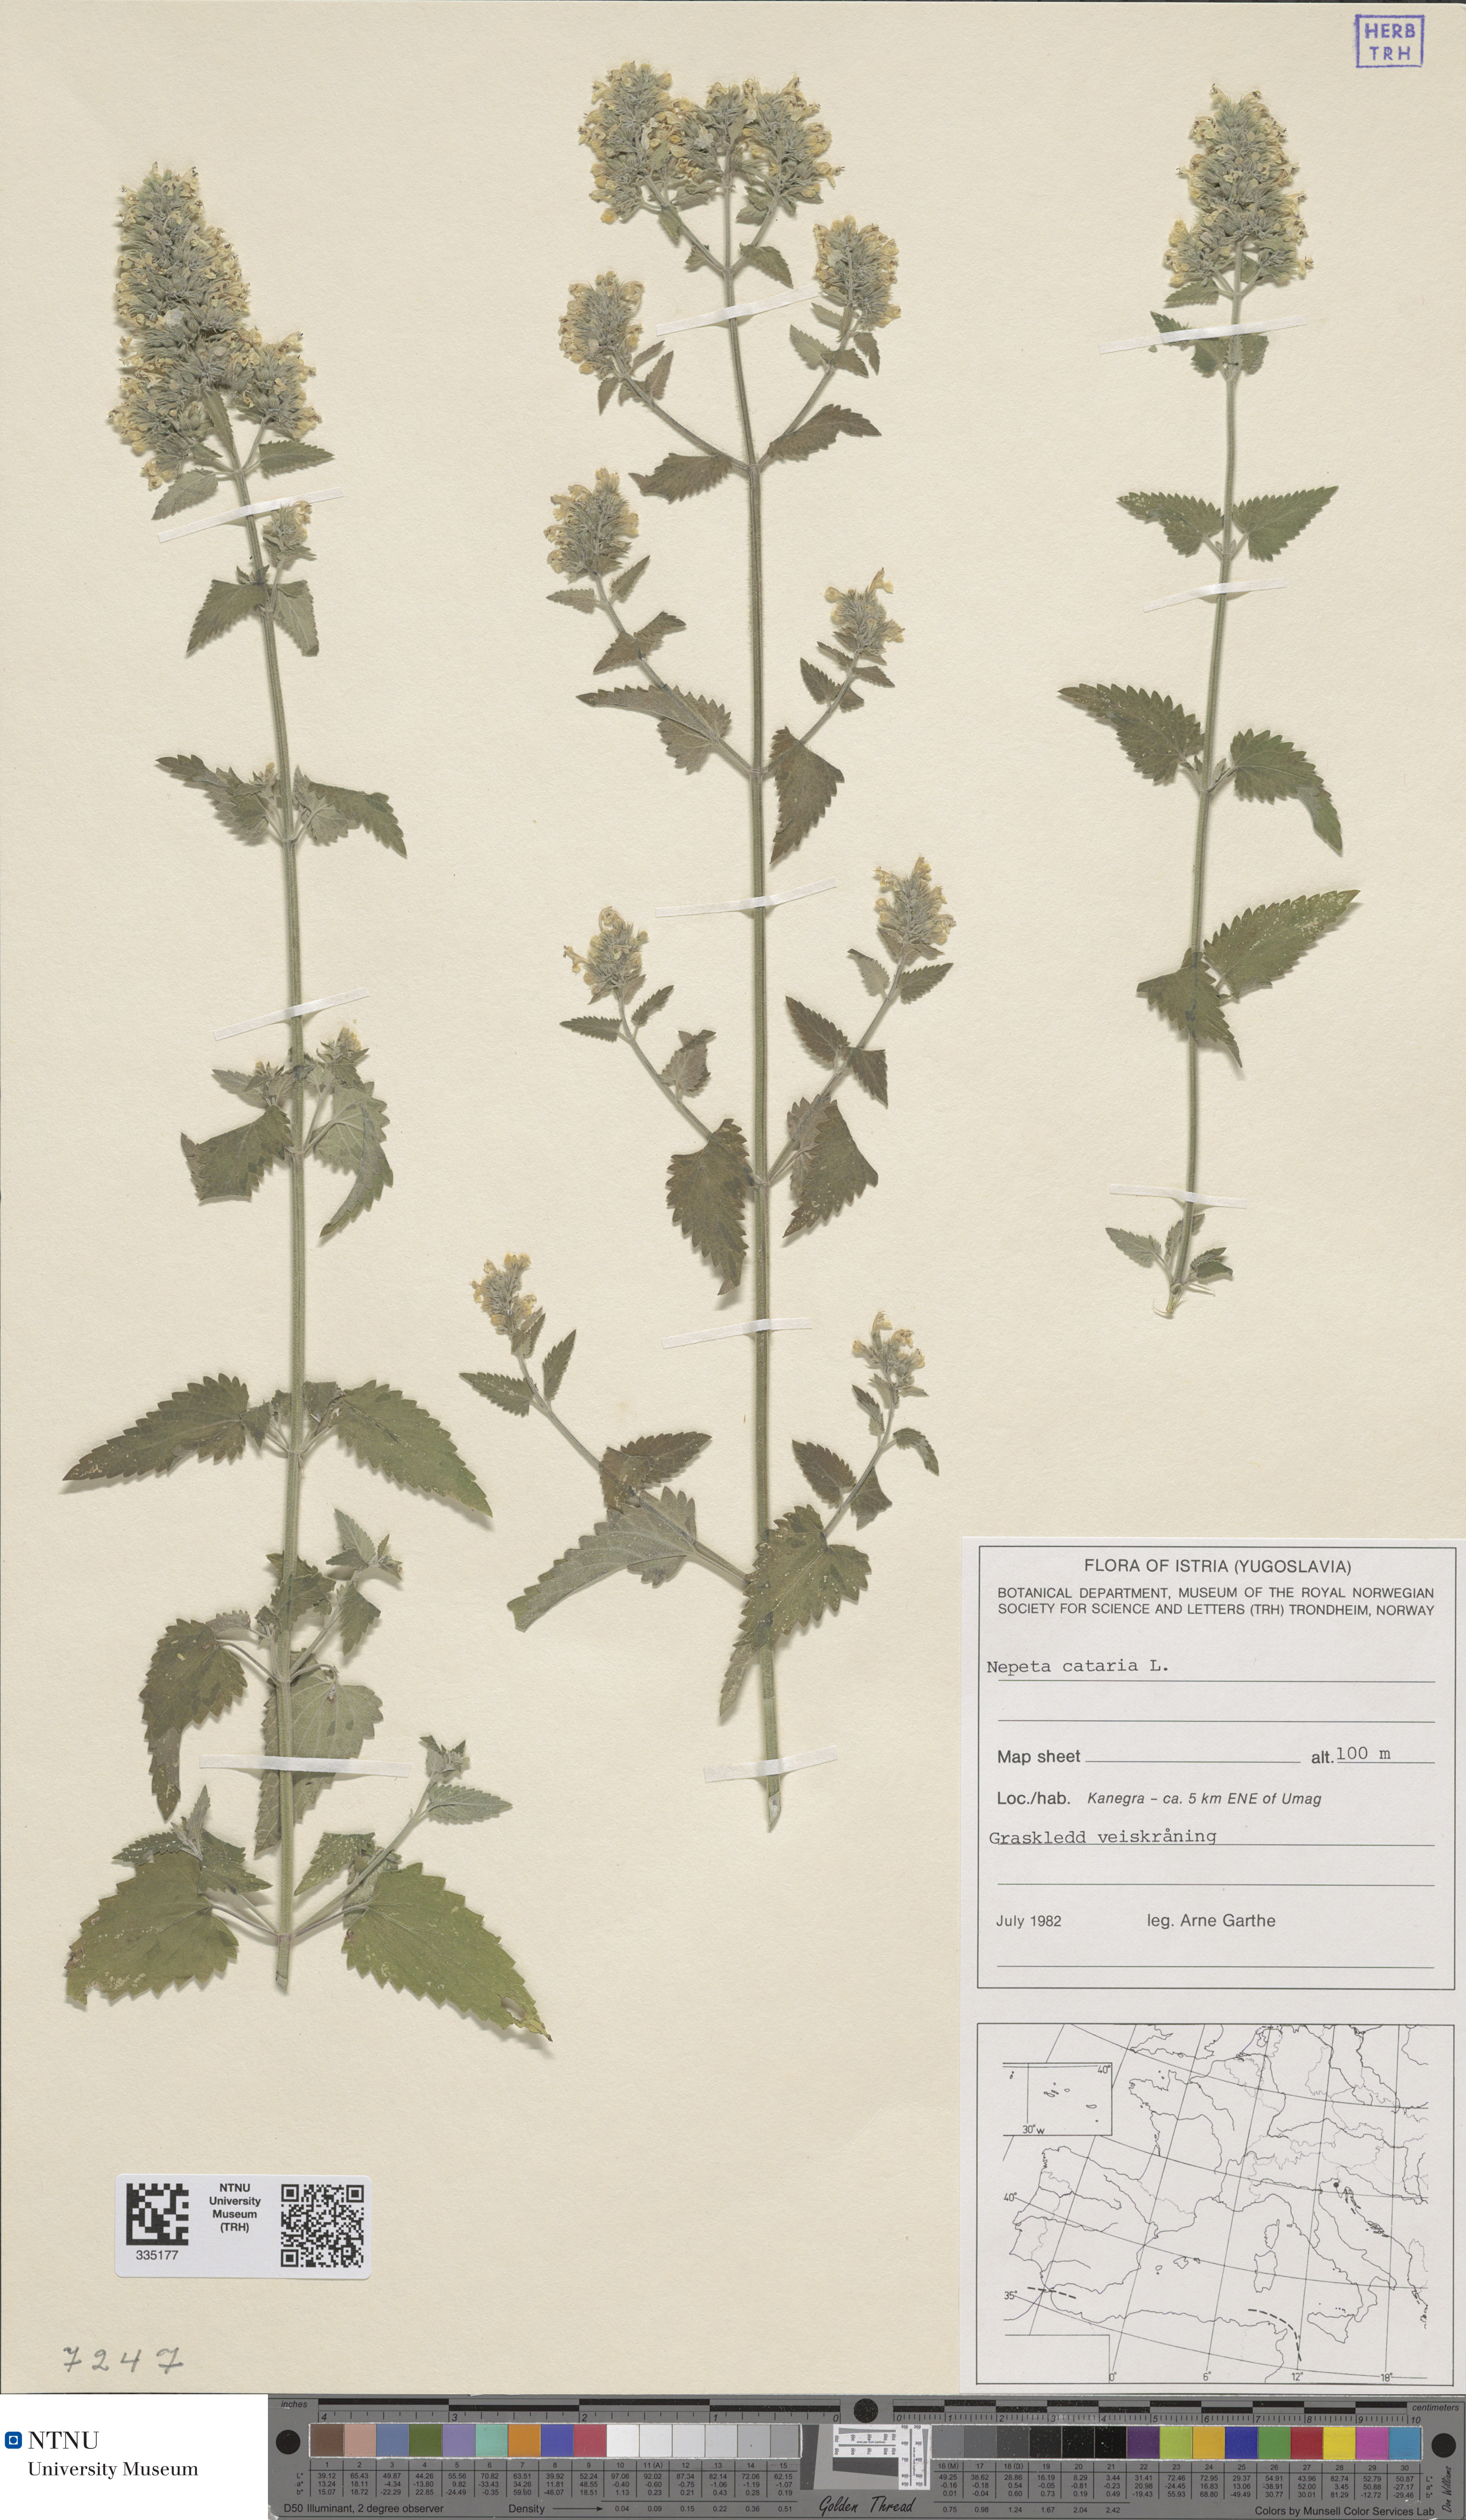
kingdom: Plantae
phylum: Tracheophyta
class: Magnoliopsida
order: Lamiales
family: Lamiaceae
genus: Nepeta
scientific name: Nepeta cataria
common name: Catnip
